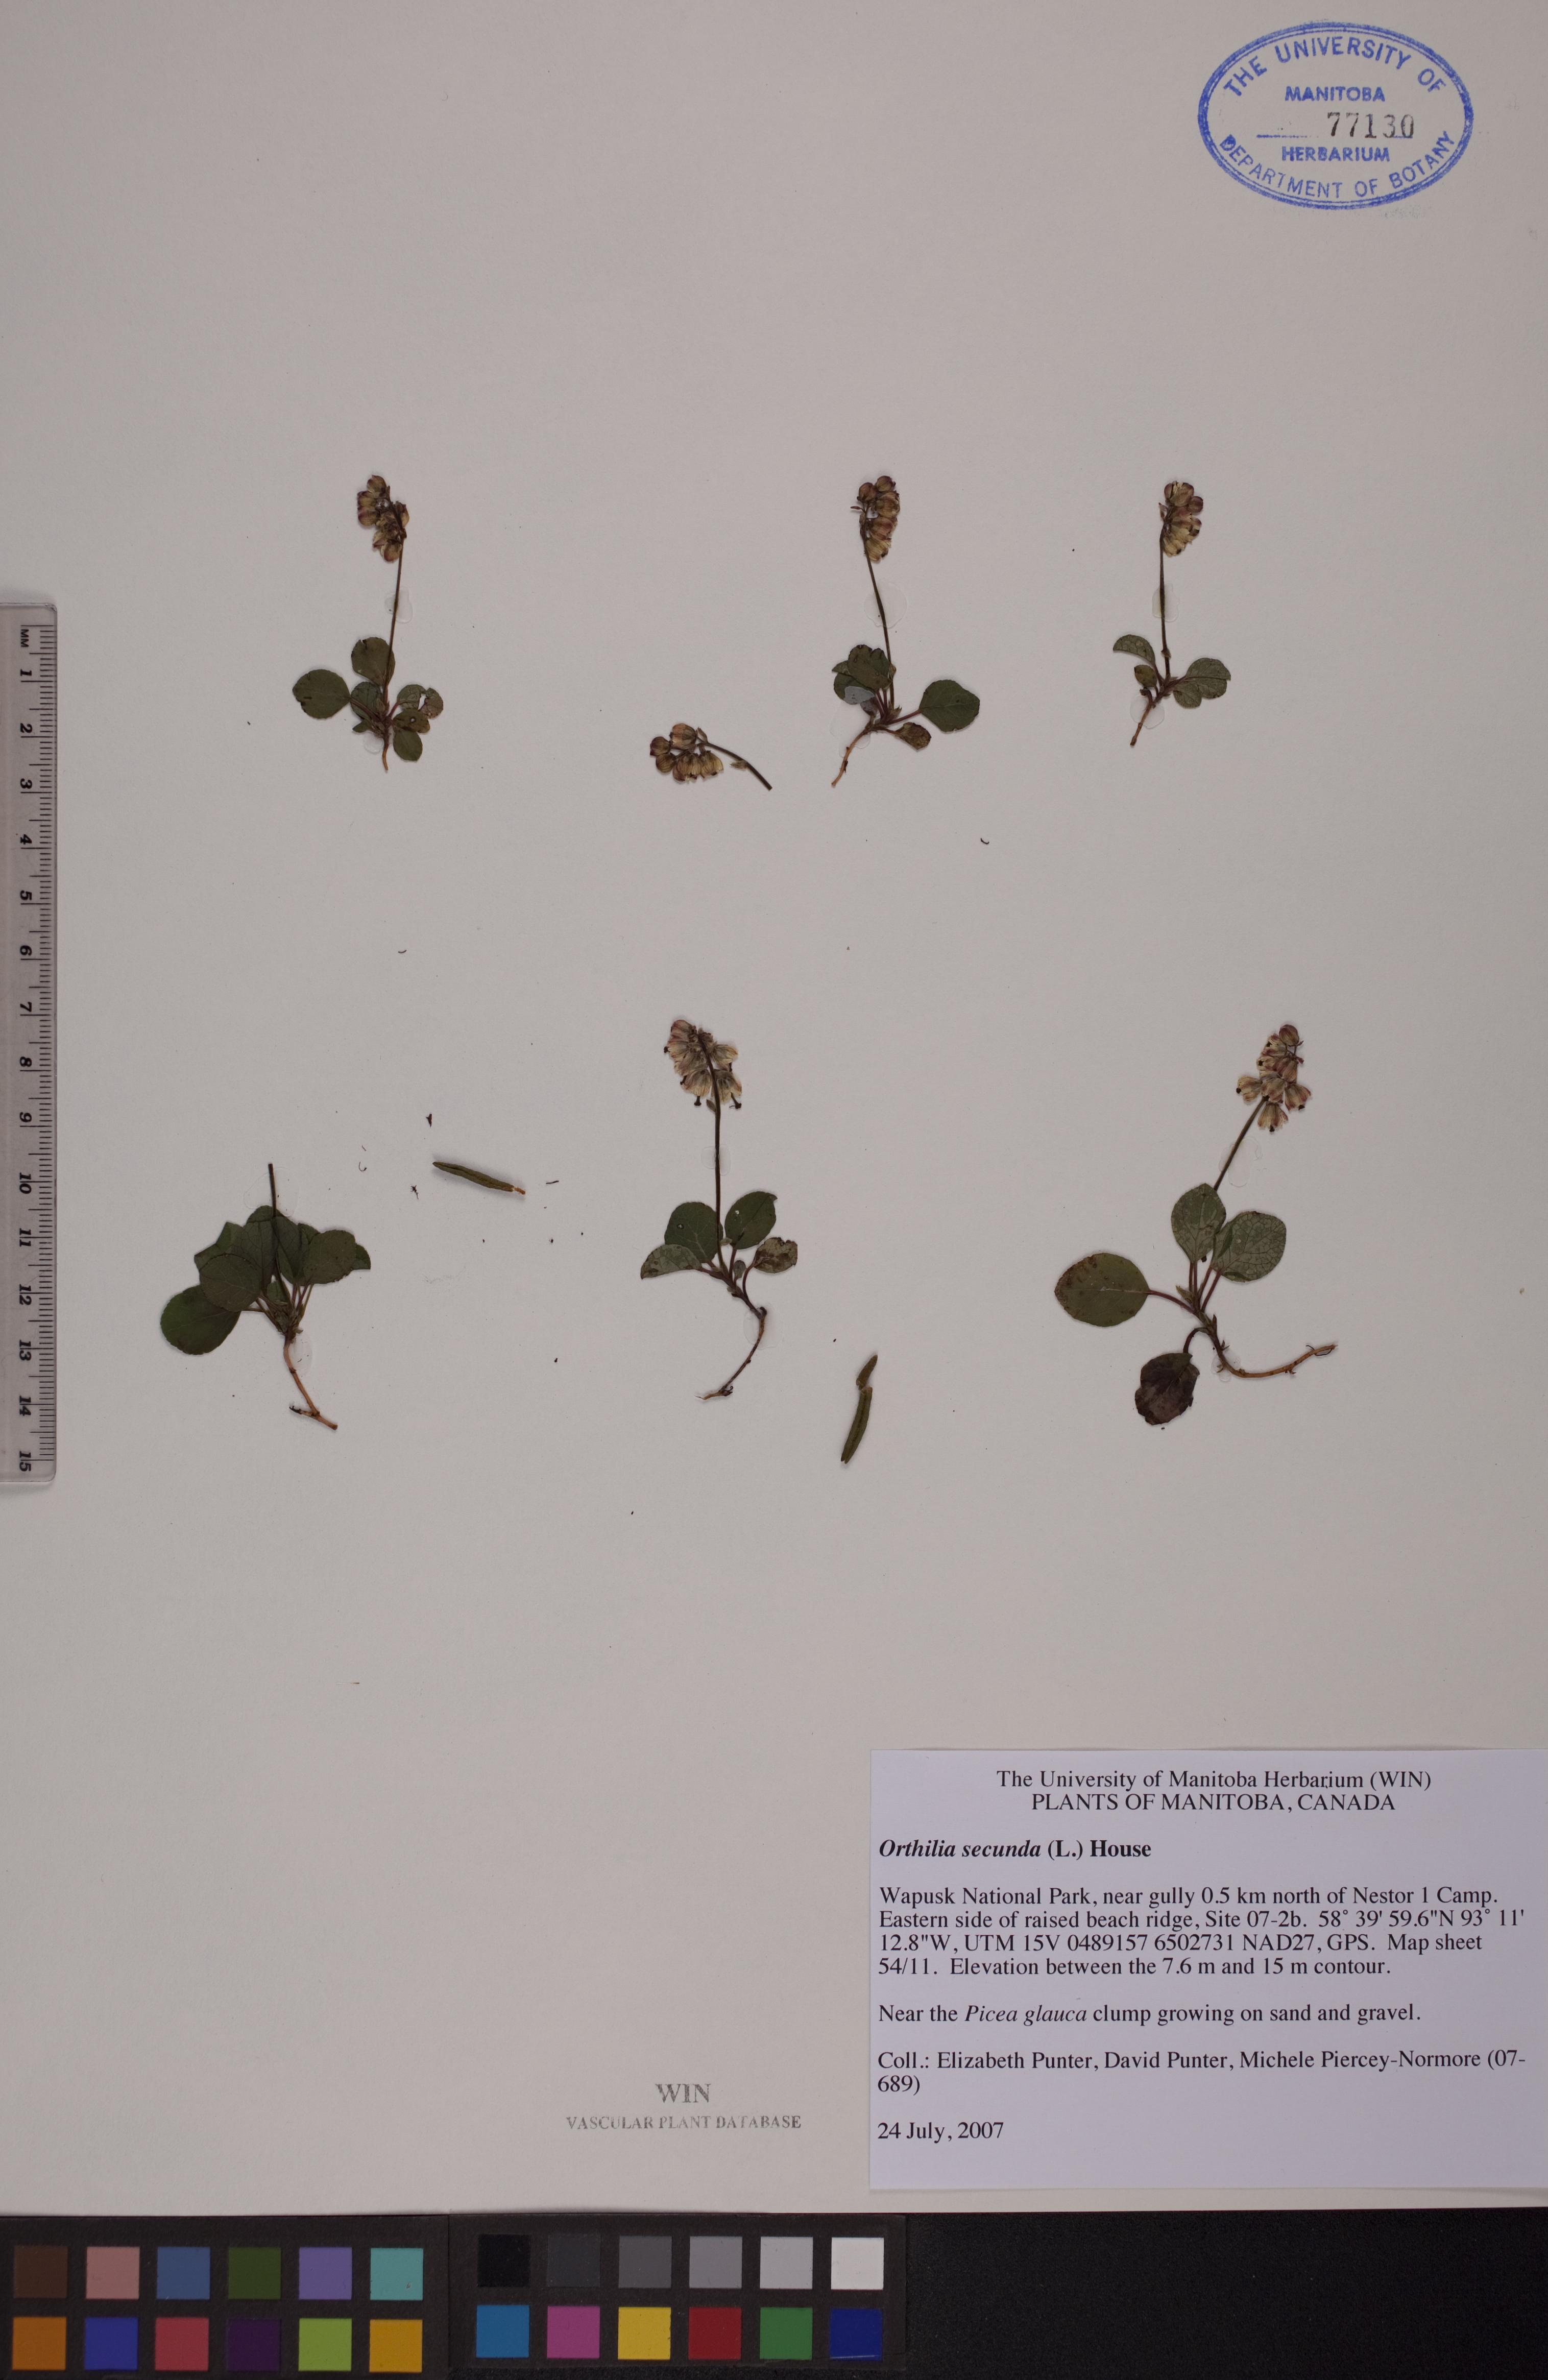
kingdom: Plantae
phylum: Tracheophyta
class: Magnoliopsida
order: Ericales
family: Ericaceae
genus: Orthilia
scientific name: Orthilia secunda
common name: One-sided orthilia
